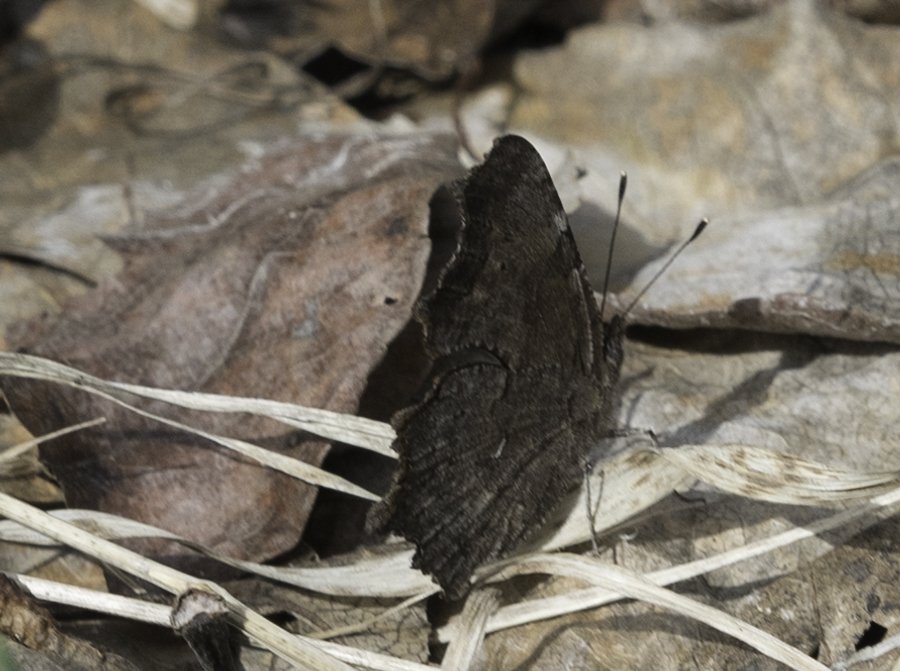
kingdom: Animalia
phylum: Arthropoda
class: Insecta
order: Lepidoptera
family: Nymphalidae
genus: Polygonia
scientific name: Polygonia faunus
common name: Green Comma
